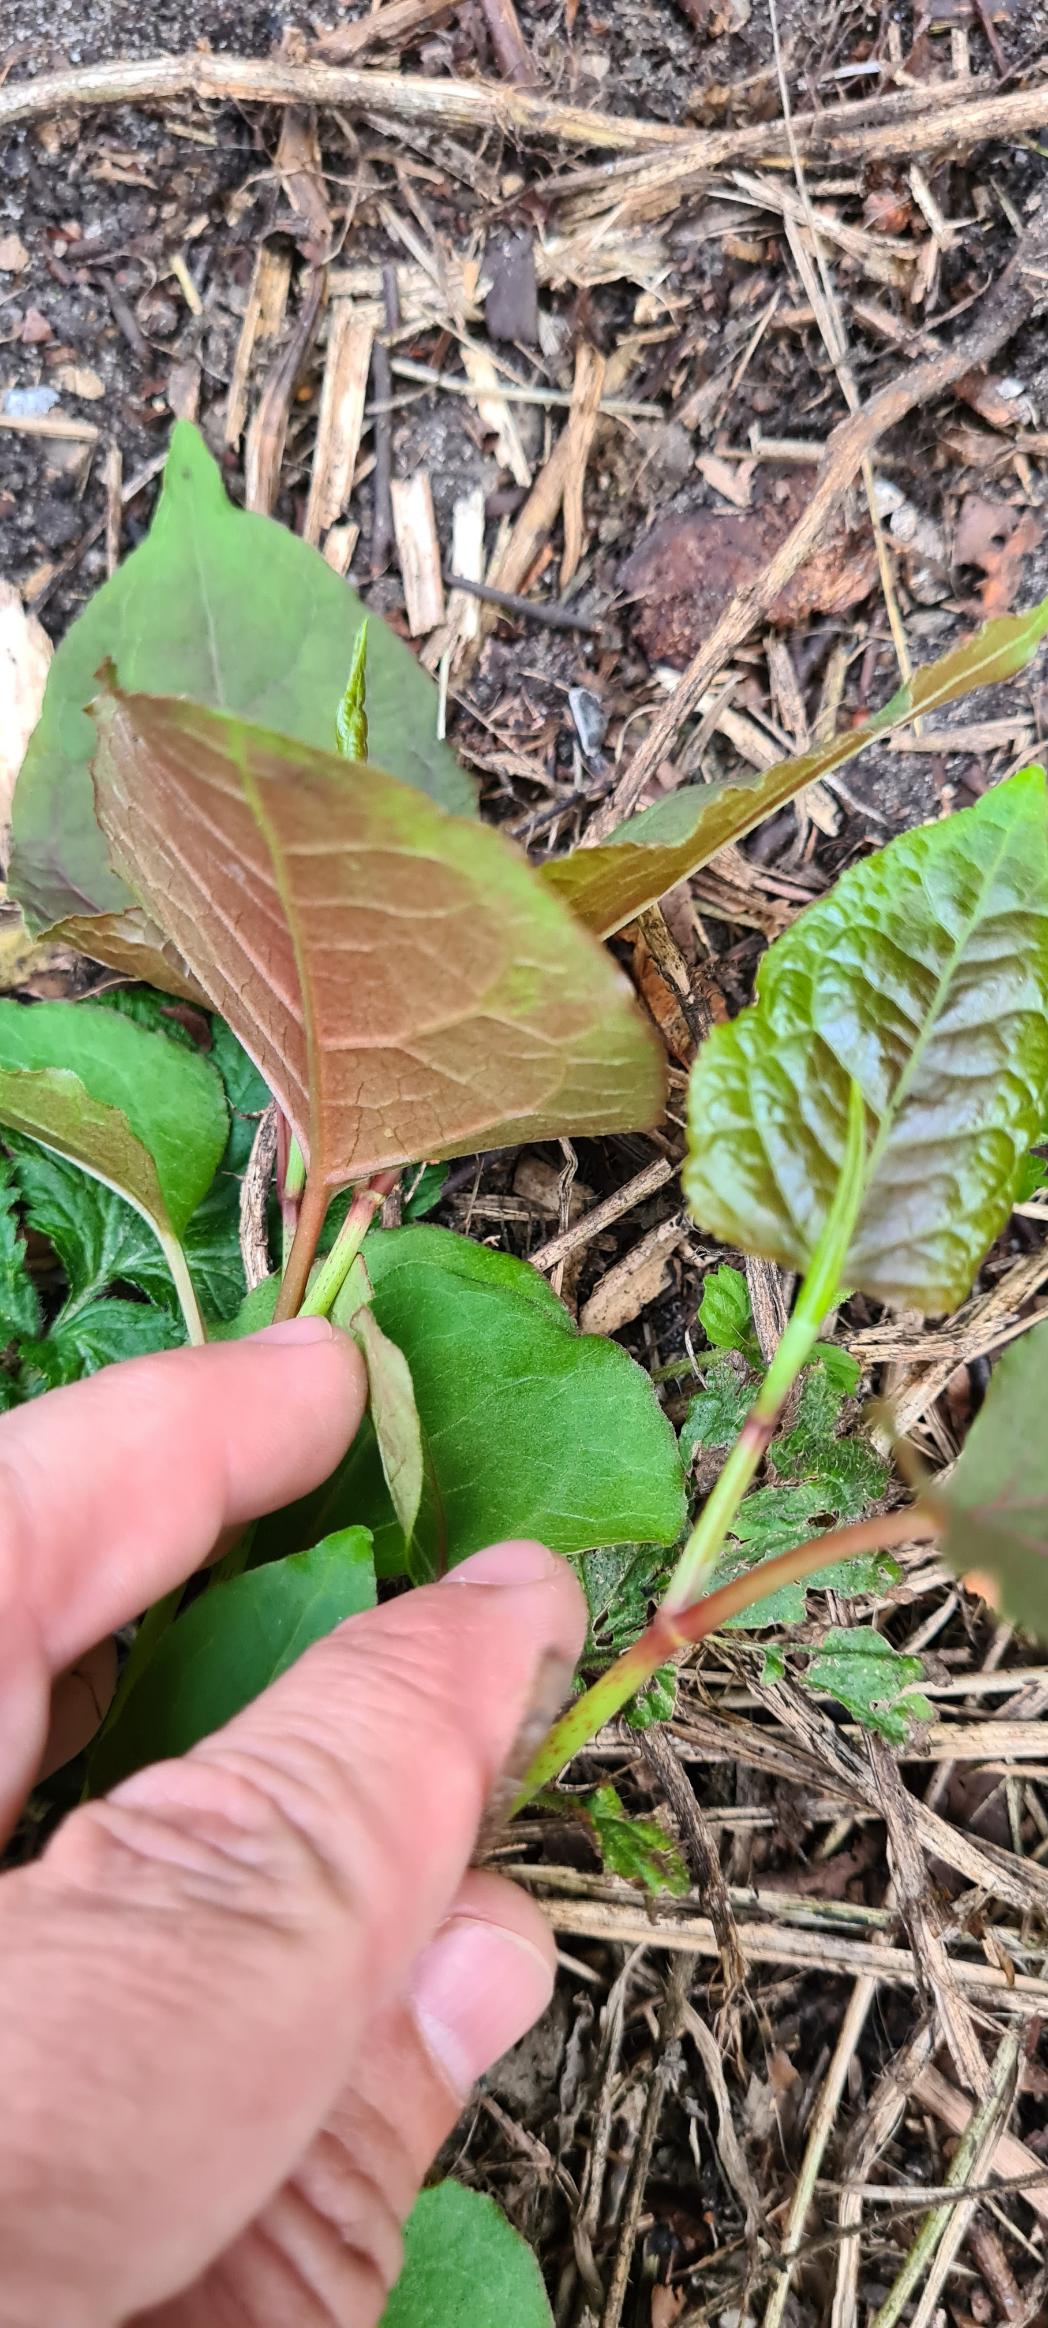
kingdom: Plantae
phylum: Tracheophyta
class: Magnoliopsida
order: Caryophyllales
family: Polygonaceae
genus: Reynoutria
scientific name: Reynoutria bohemica
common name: Hybrid-pileurt
